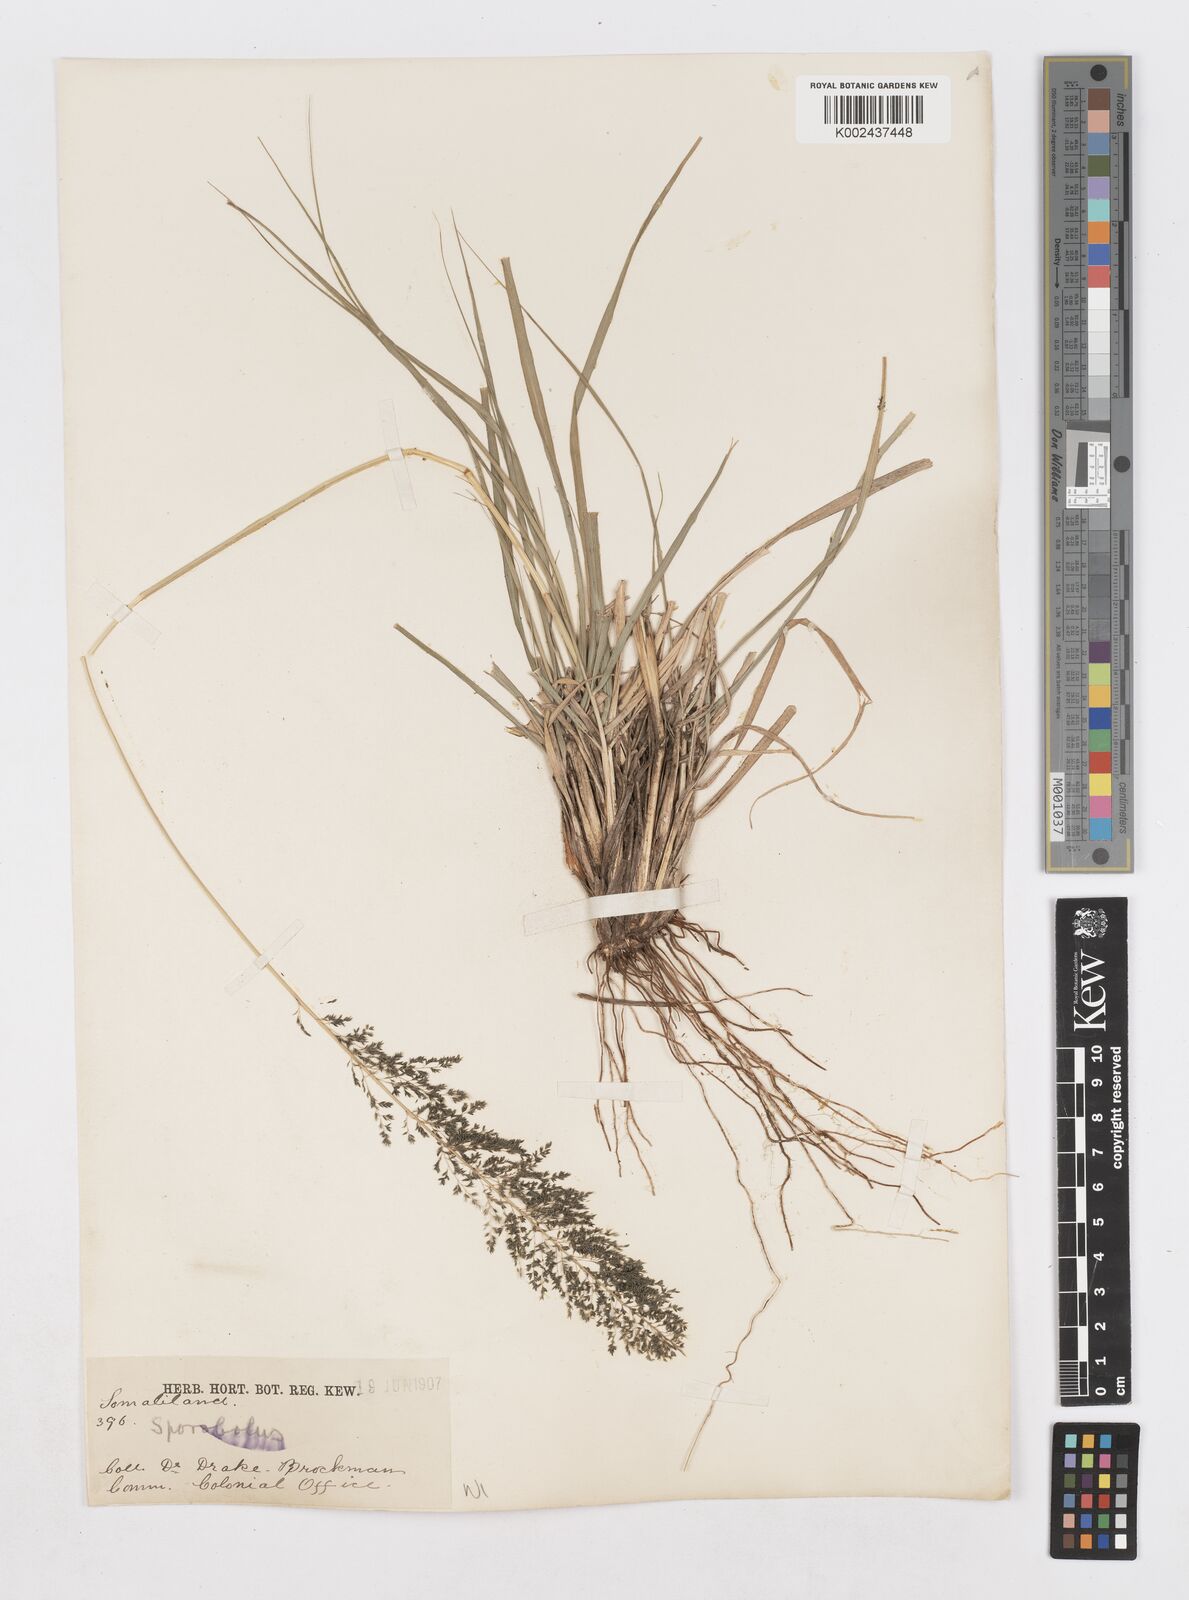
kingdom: Plantae
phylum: Tracheophyta
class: Liliopsida
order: Poales
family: Poaceae
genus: Sporobolus
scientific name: Sporobolus fimbriatus
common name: Fringed dropseed
